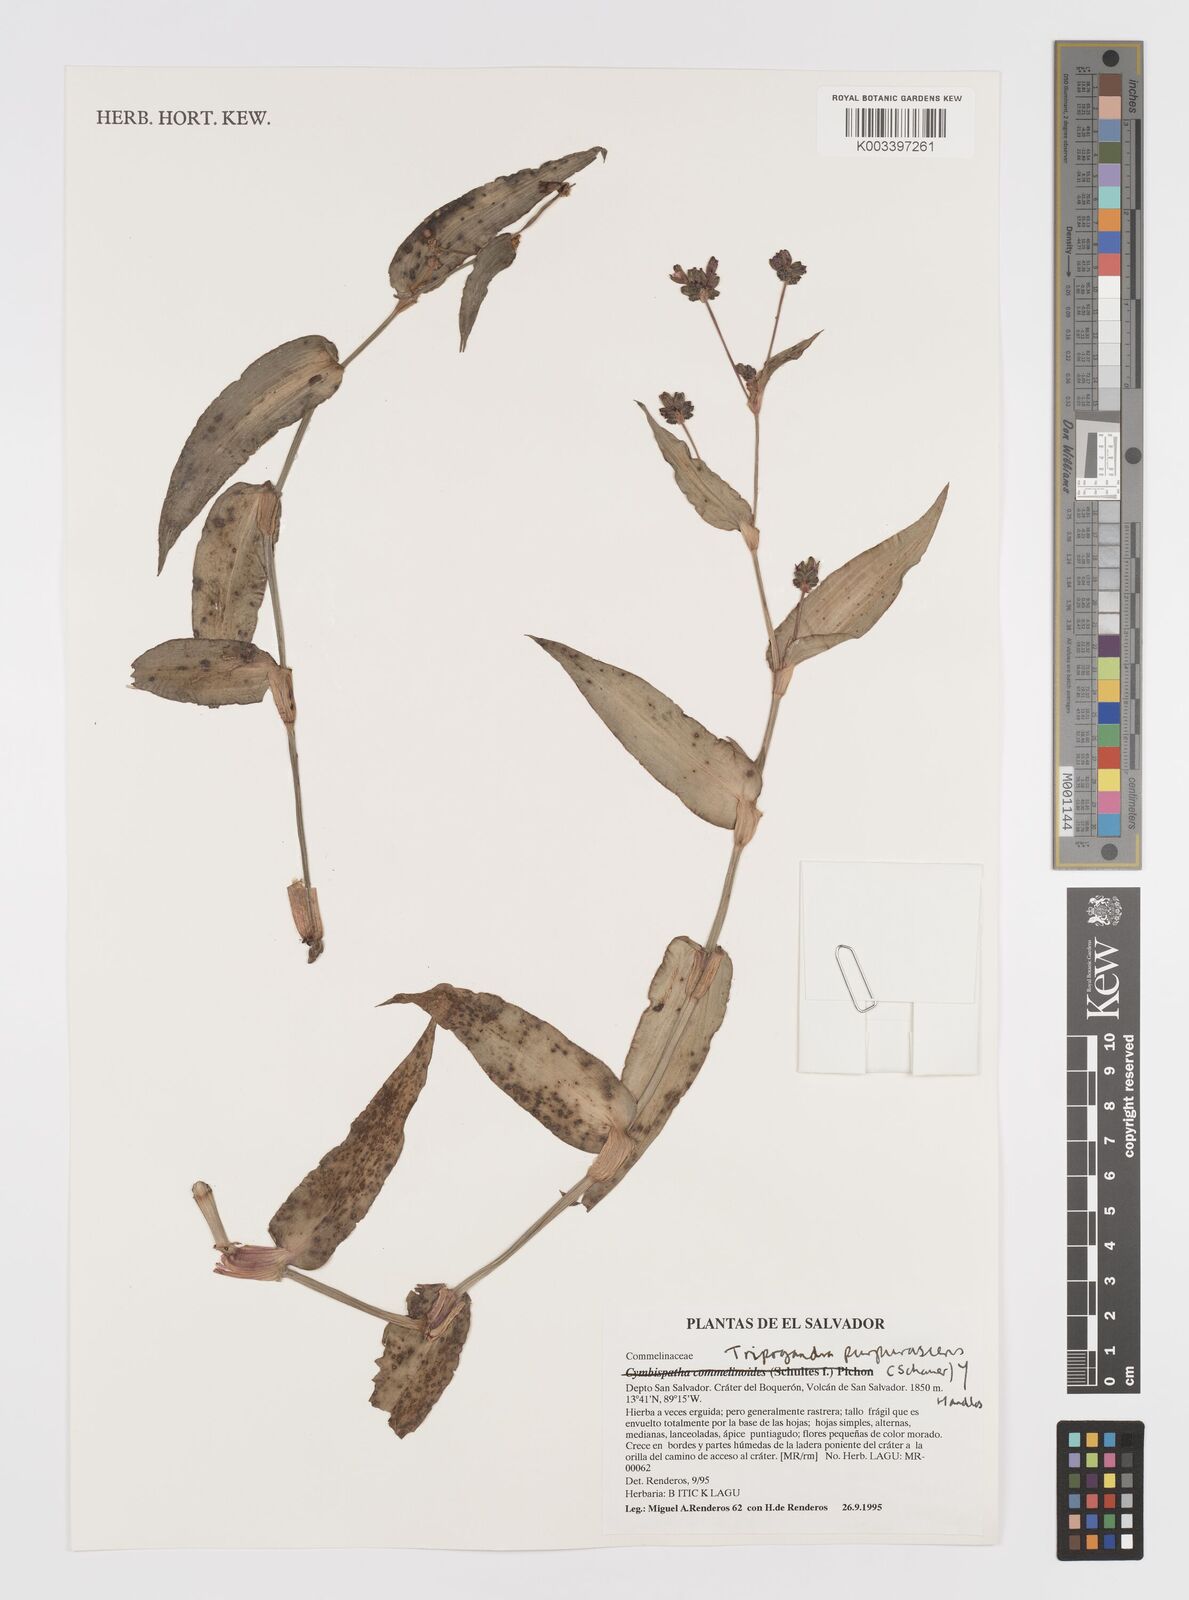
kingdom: Plantae
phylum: Tracheophyta
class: Liliopsida
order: Commelinales
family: Commelinaceae
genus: Callisia
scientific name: Callisia purpurascens
